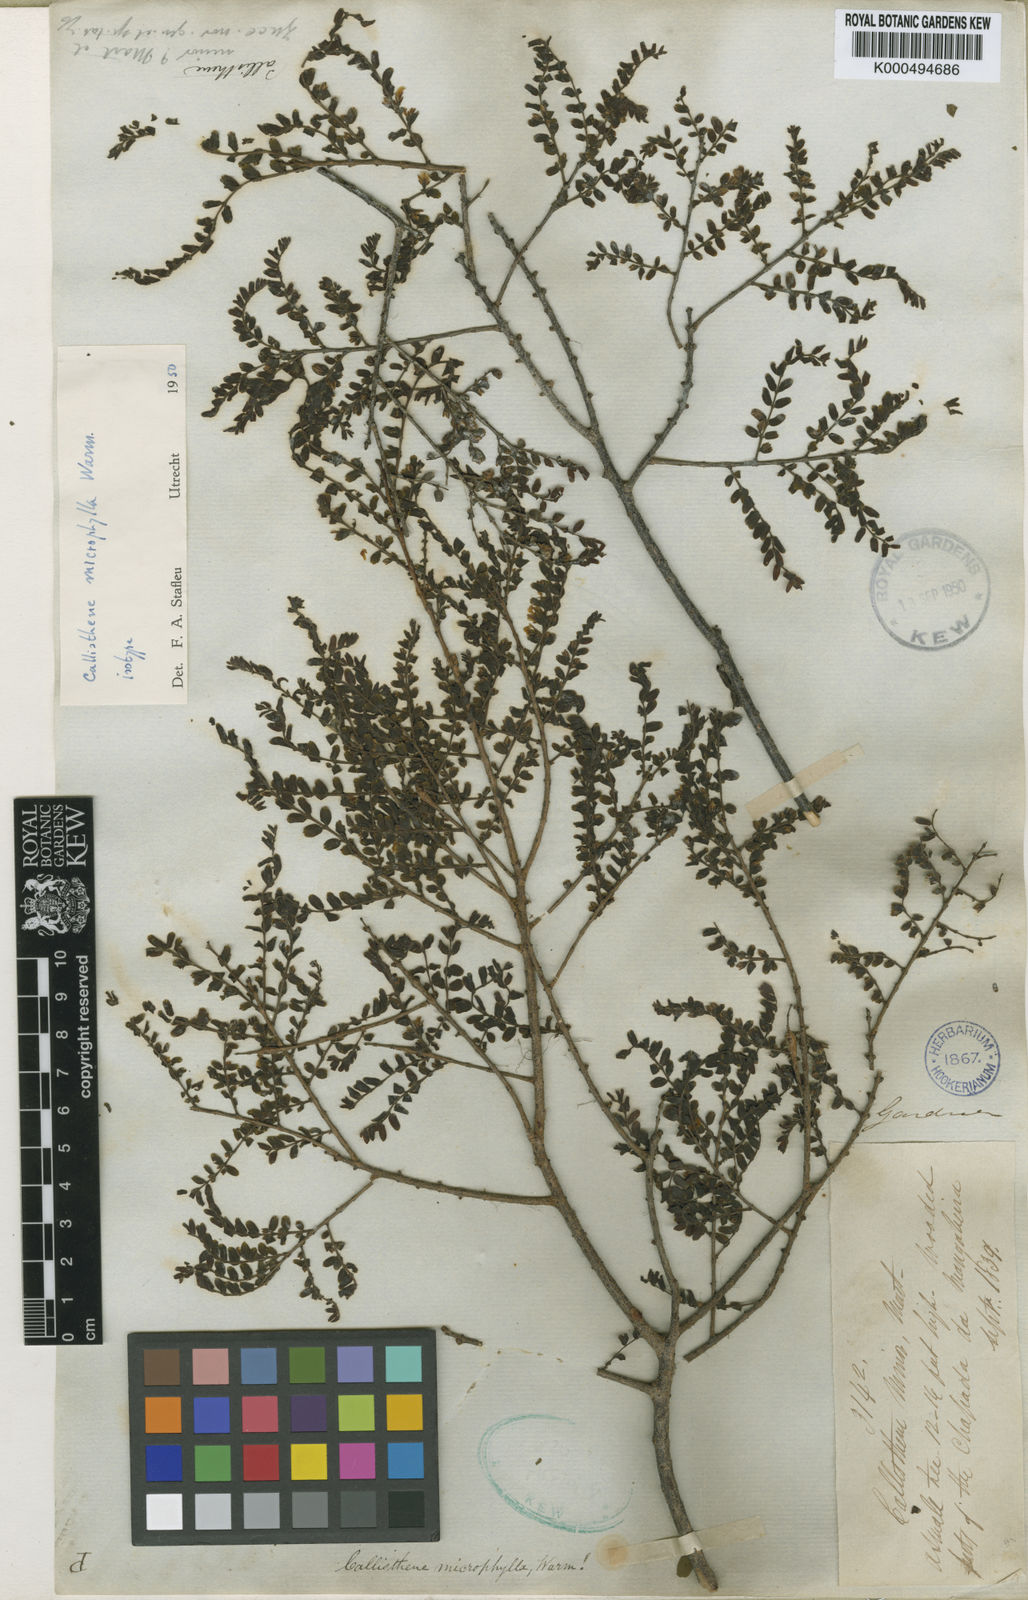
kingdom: Plantae
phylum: Tracheophyta
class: Magnoliopsida
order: Myrtales
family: Vochysiaceae
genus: Callisthene
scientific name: Callisthene microphylla
